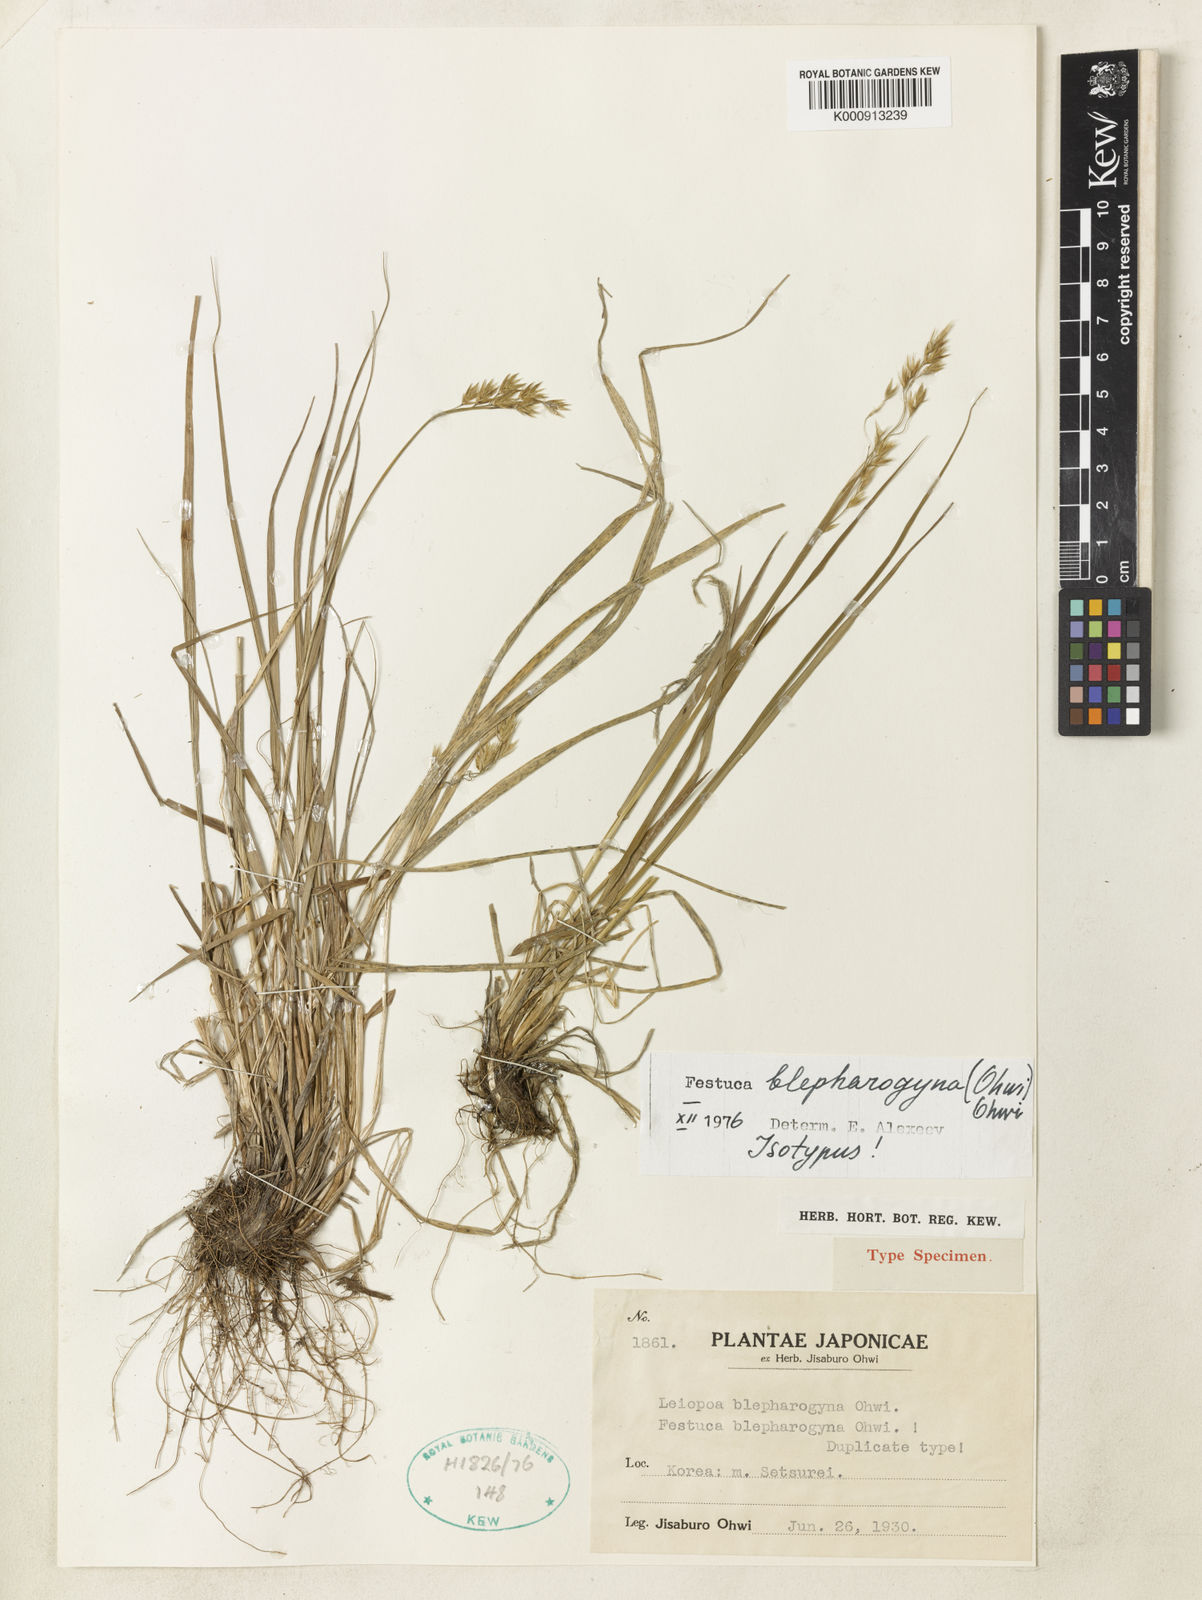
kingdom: Plantae
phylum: Tracheophyta
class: Liliopsida
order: Poales
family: Poaceae
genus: Festuca
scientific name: Festuca nuda
